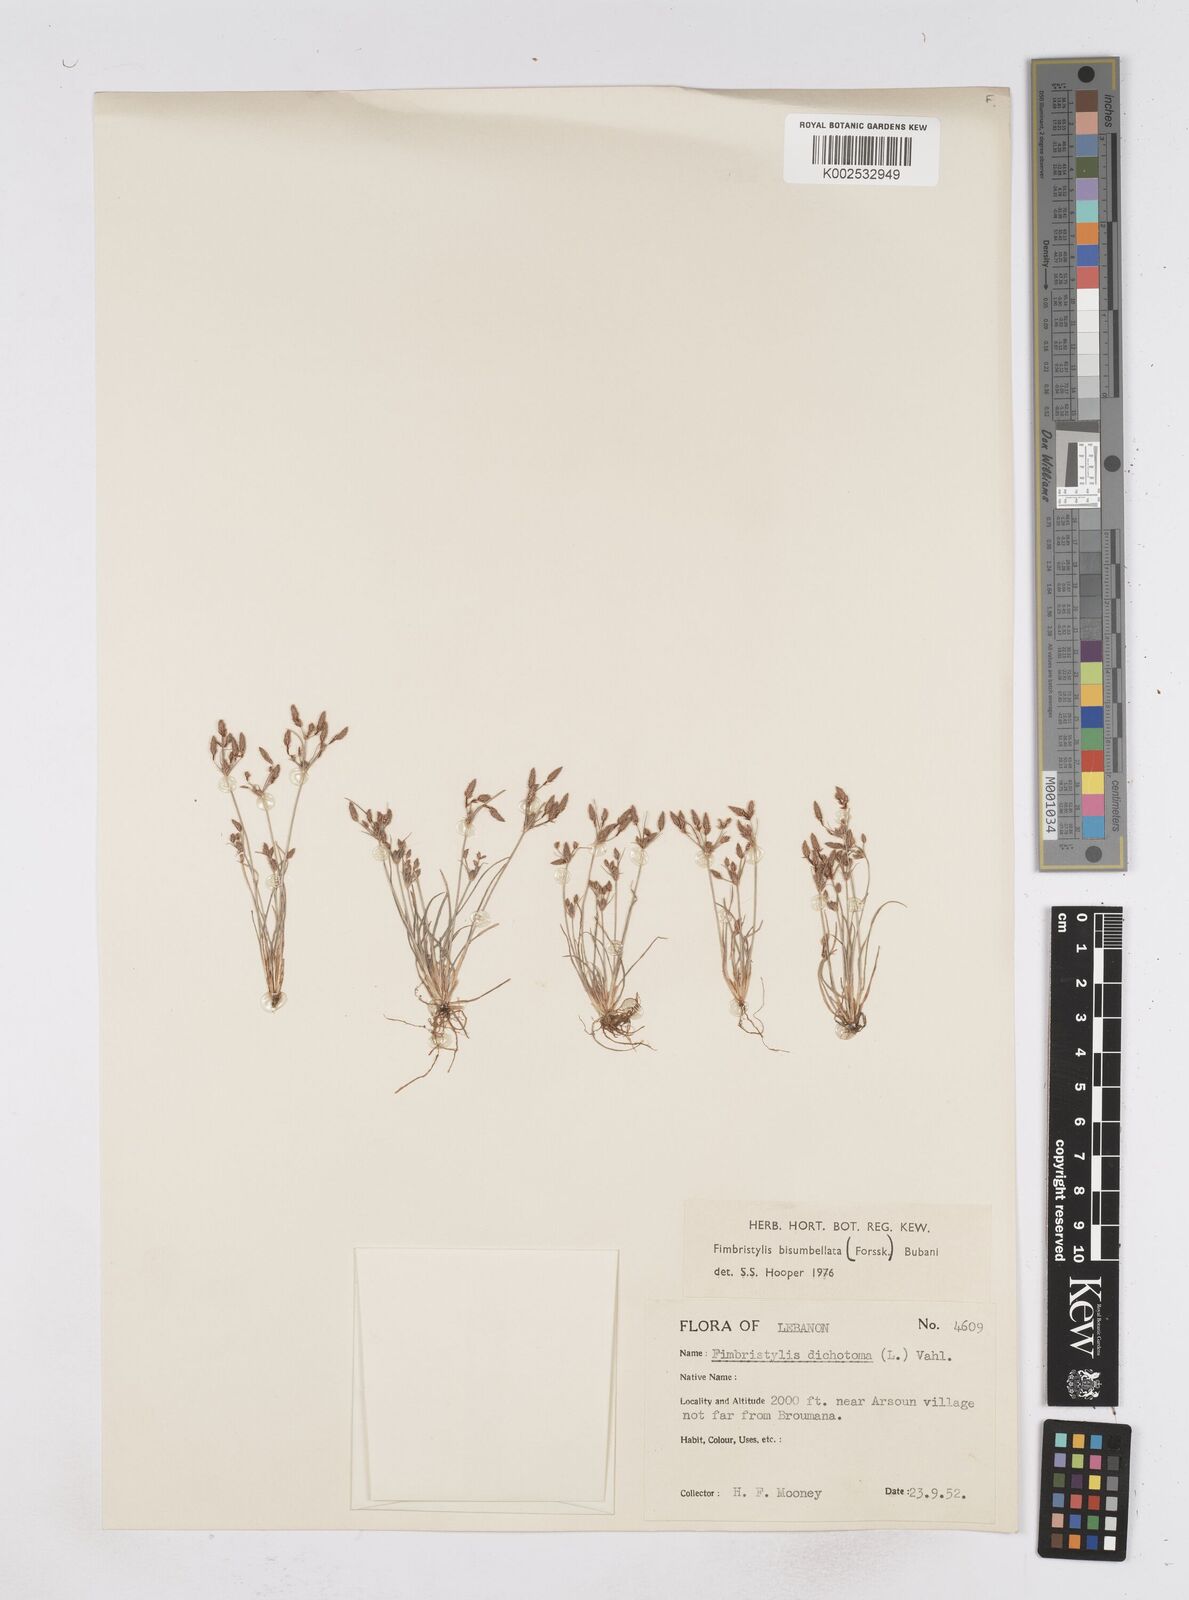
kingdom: Plantae
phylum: Tracheophyta
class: Liliopsida
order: Poales
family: Cyperaceae
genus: Fimbristylis
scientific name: Fimbristylis bisumbellata
